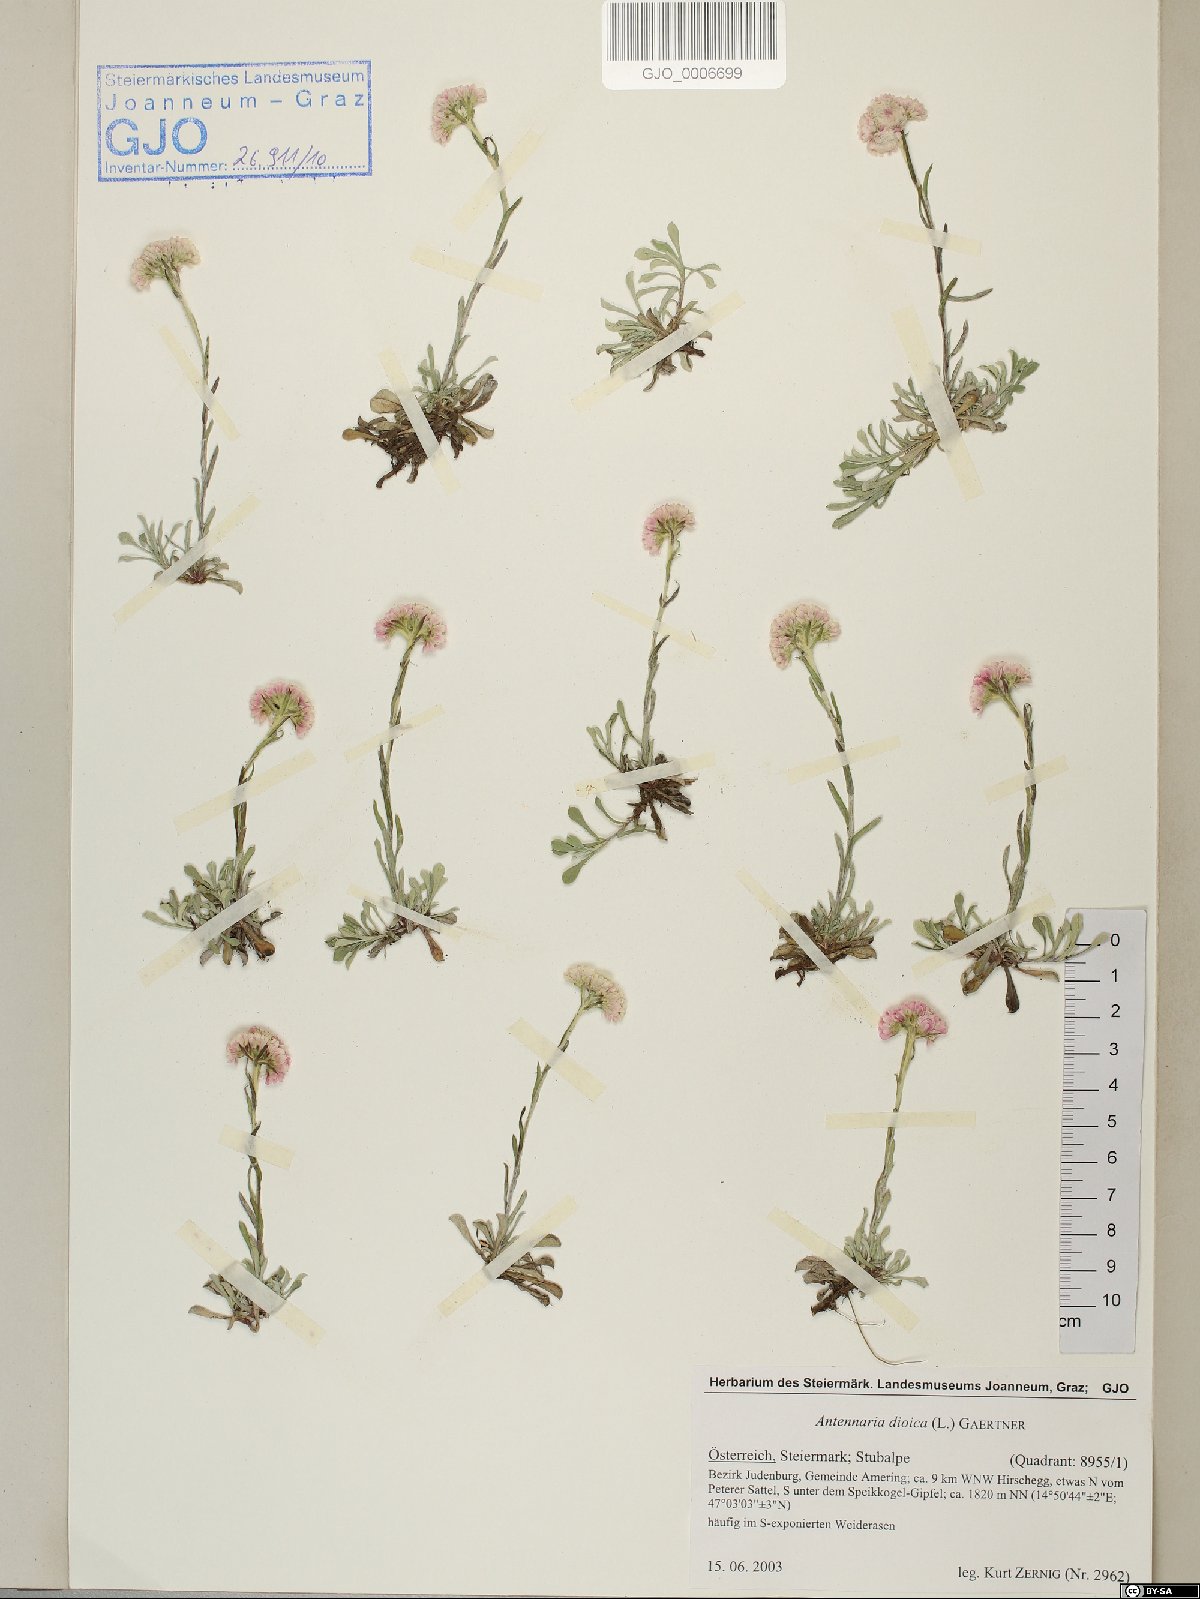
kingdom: Plantae
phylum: Tracheophyta
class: Magnoliopsida
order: Asterales
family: Asteraceae
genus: Antennaria
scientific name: Antennaria dioica
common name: Mountain everlasting
